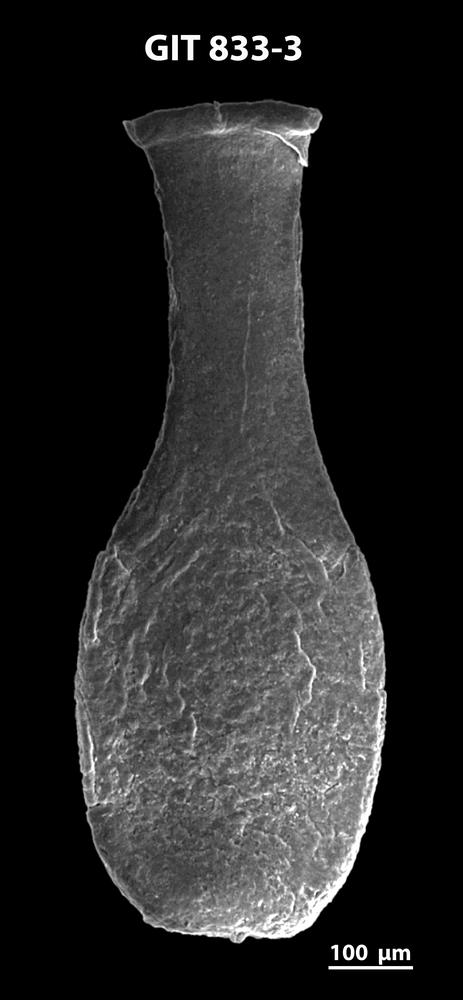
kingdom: Animalia
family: Lagenochitinidae
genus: Lagenochitina
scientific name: Lagenochitina megaesthonica
